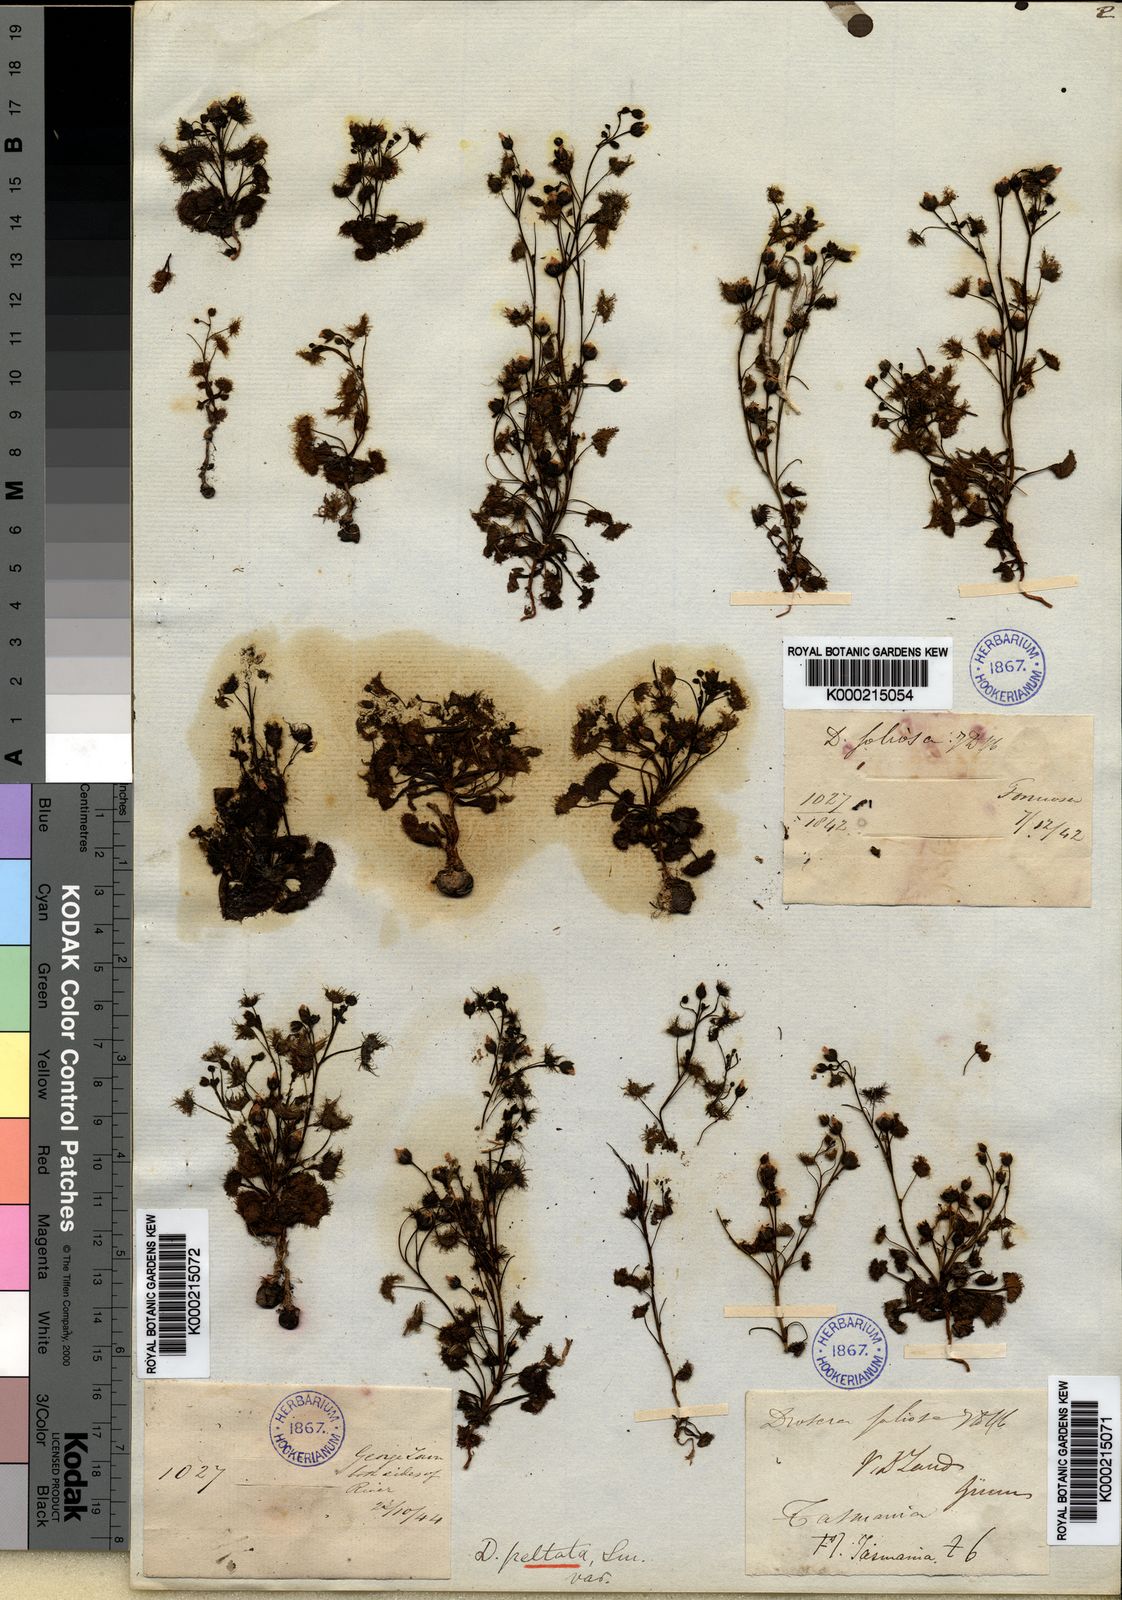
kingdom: Plantae
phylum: Tracheophyta
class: Magnoliopsida
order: Caryophyllales
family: Droseraceae
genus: Drosera
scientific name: Drosera hookeri
